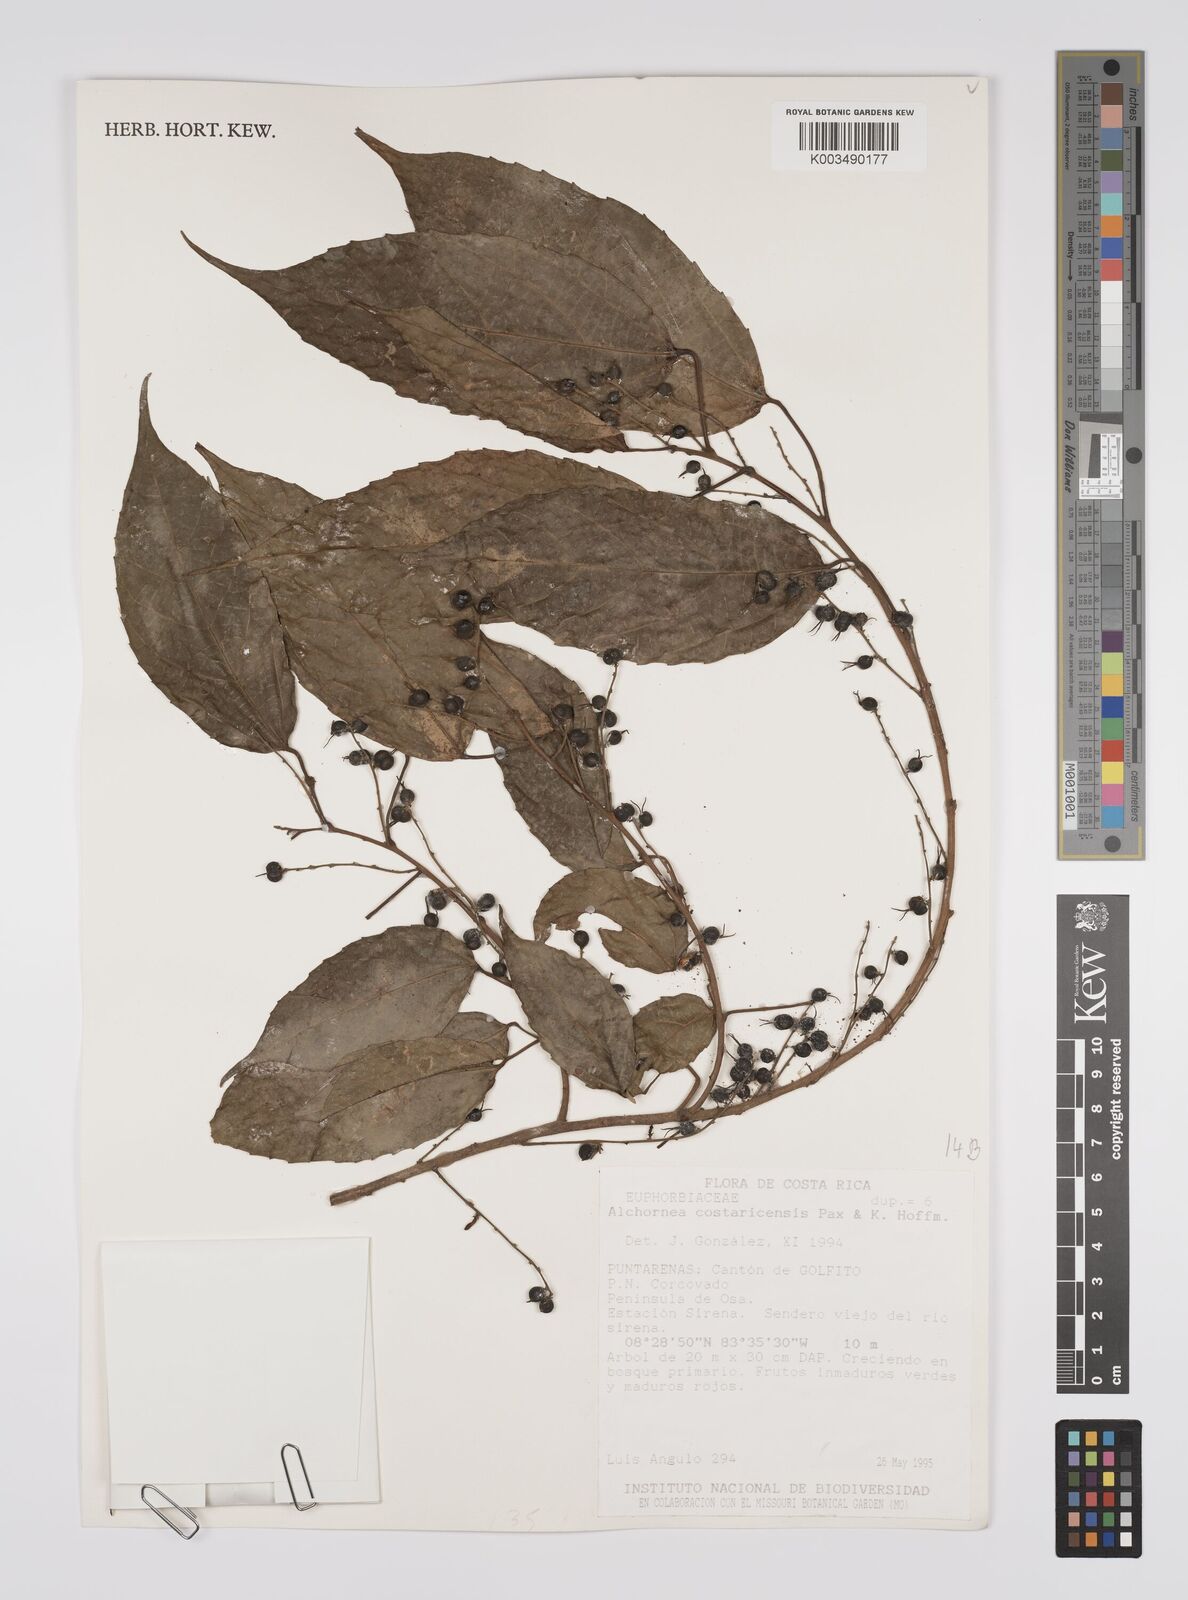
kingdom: Plantae
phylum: Tracheophyta
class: Magnoliopsida
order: Malpighiales
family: Euphorbiaceae
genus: Alchornea
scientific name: Alchornea costaricensis
